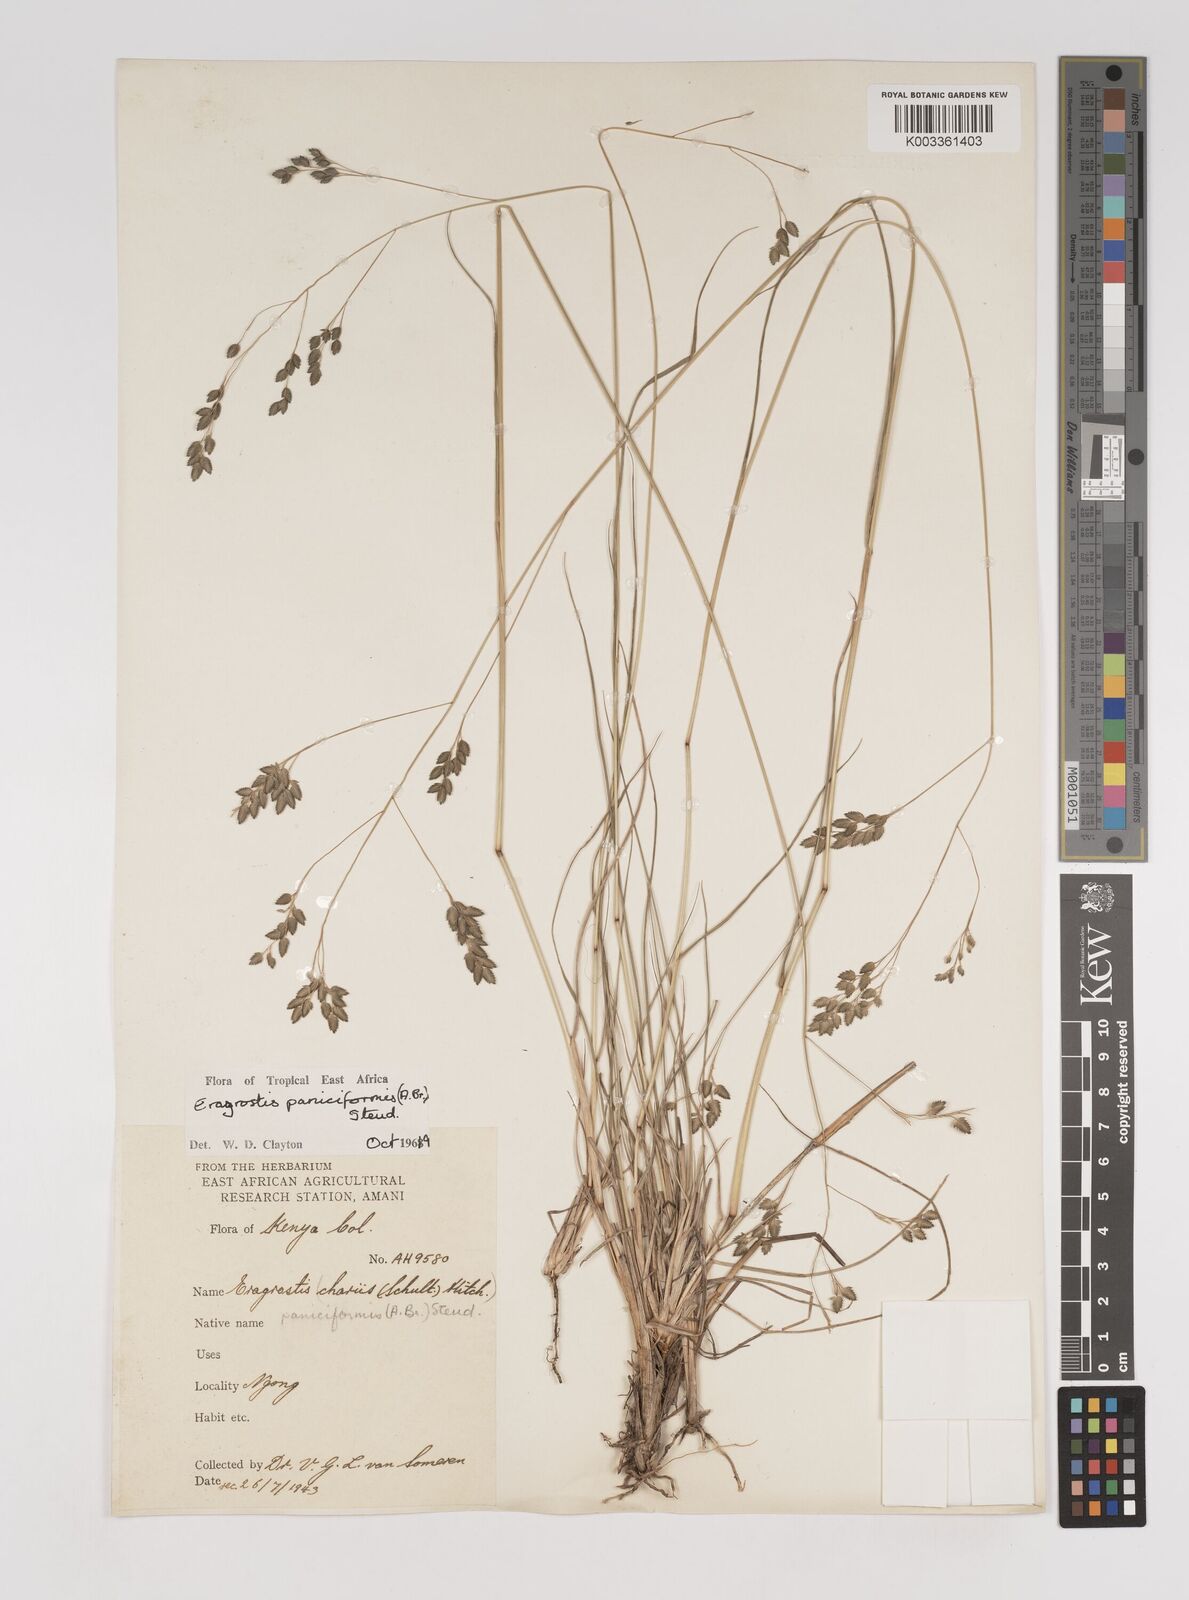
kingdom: Plantae
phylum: Tracheophyta
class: Liliopsida
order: Poales
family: Poaceae
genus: Eragrostis
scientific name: Eragrostis paniciformis
